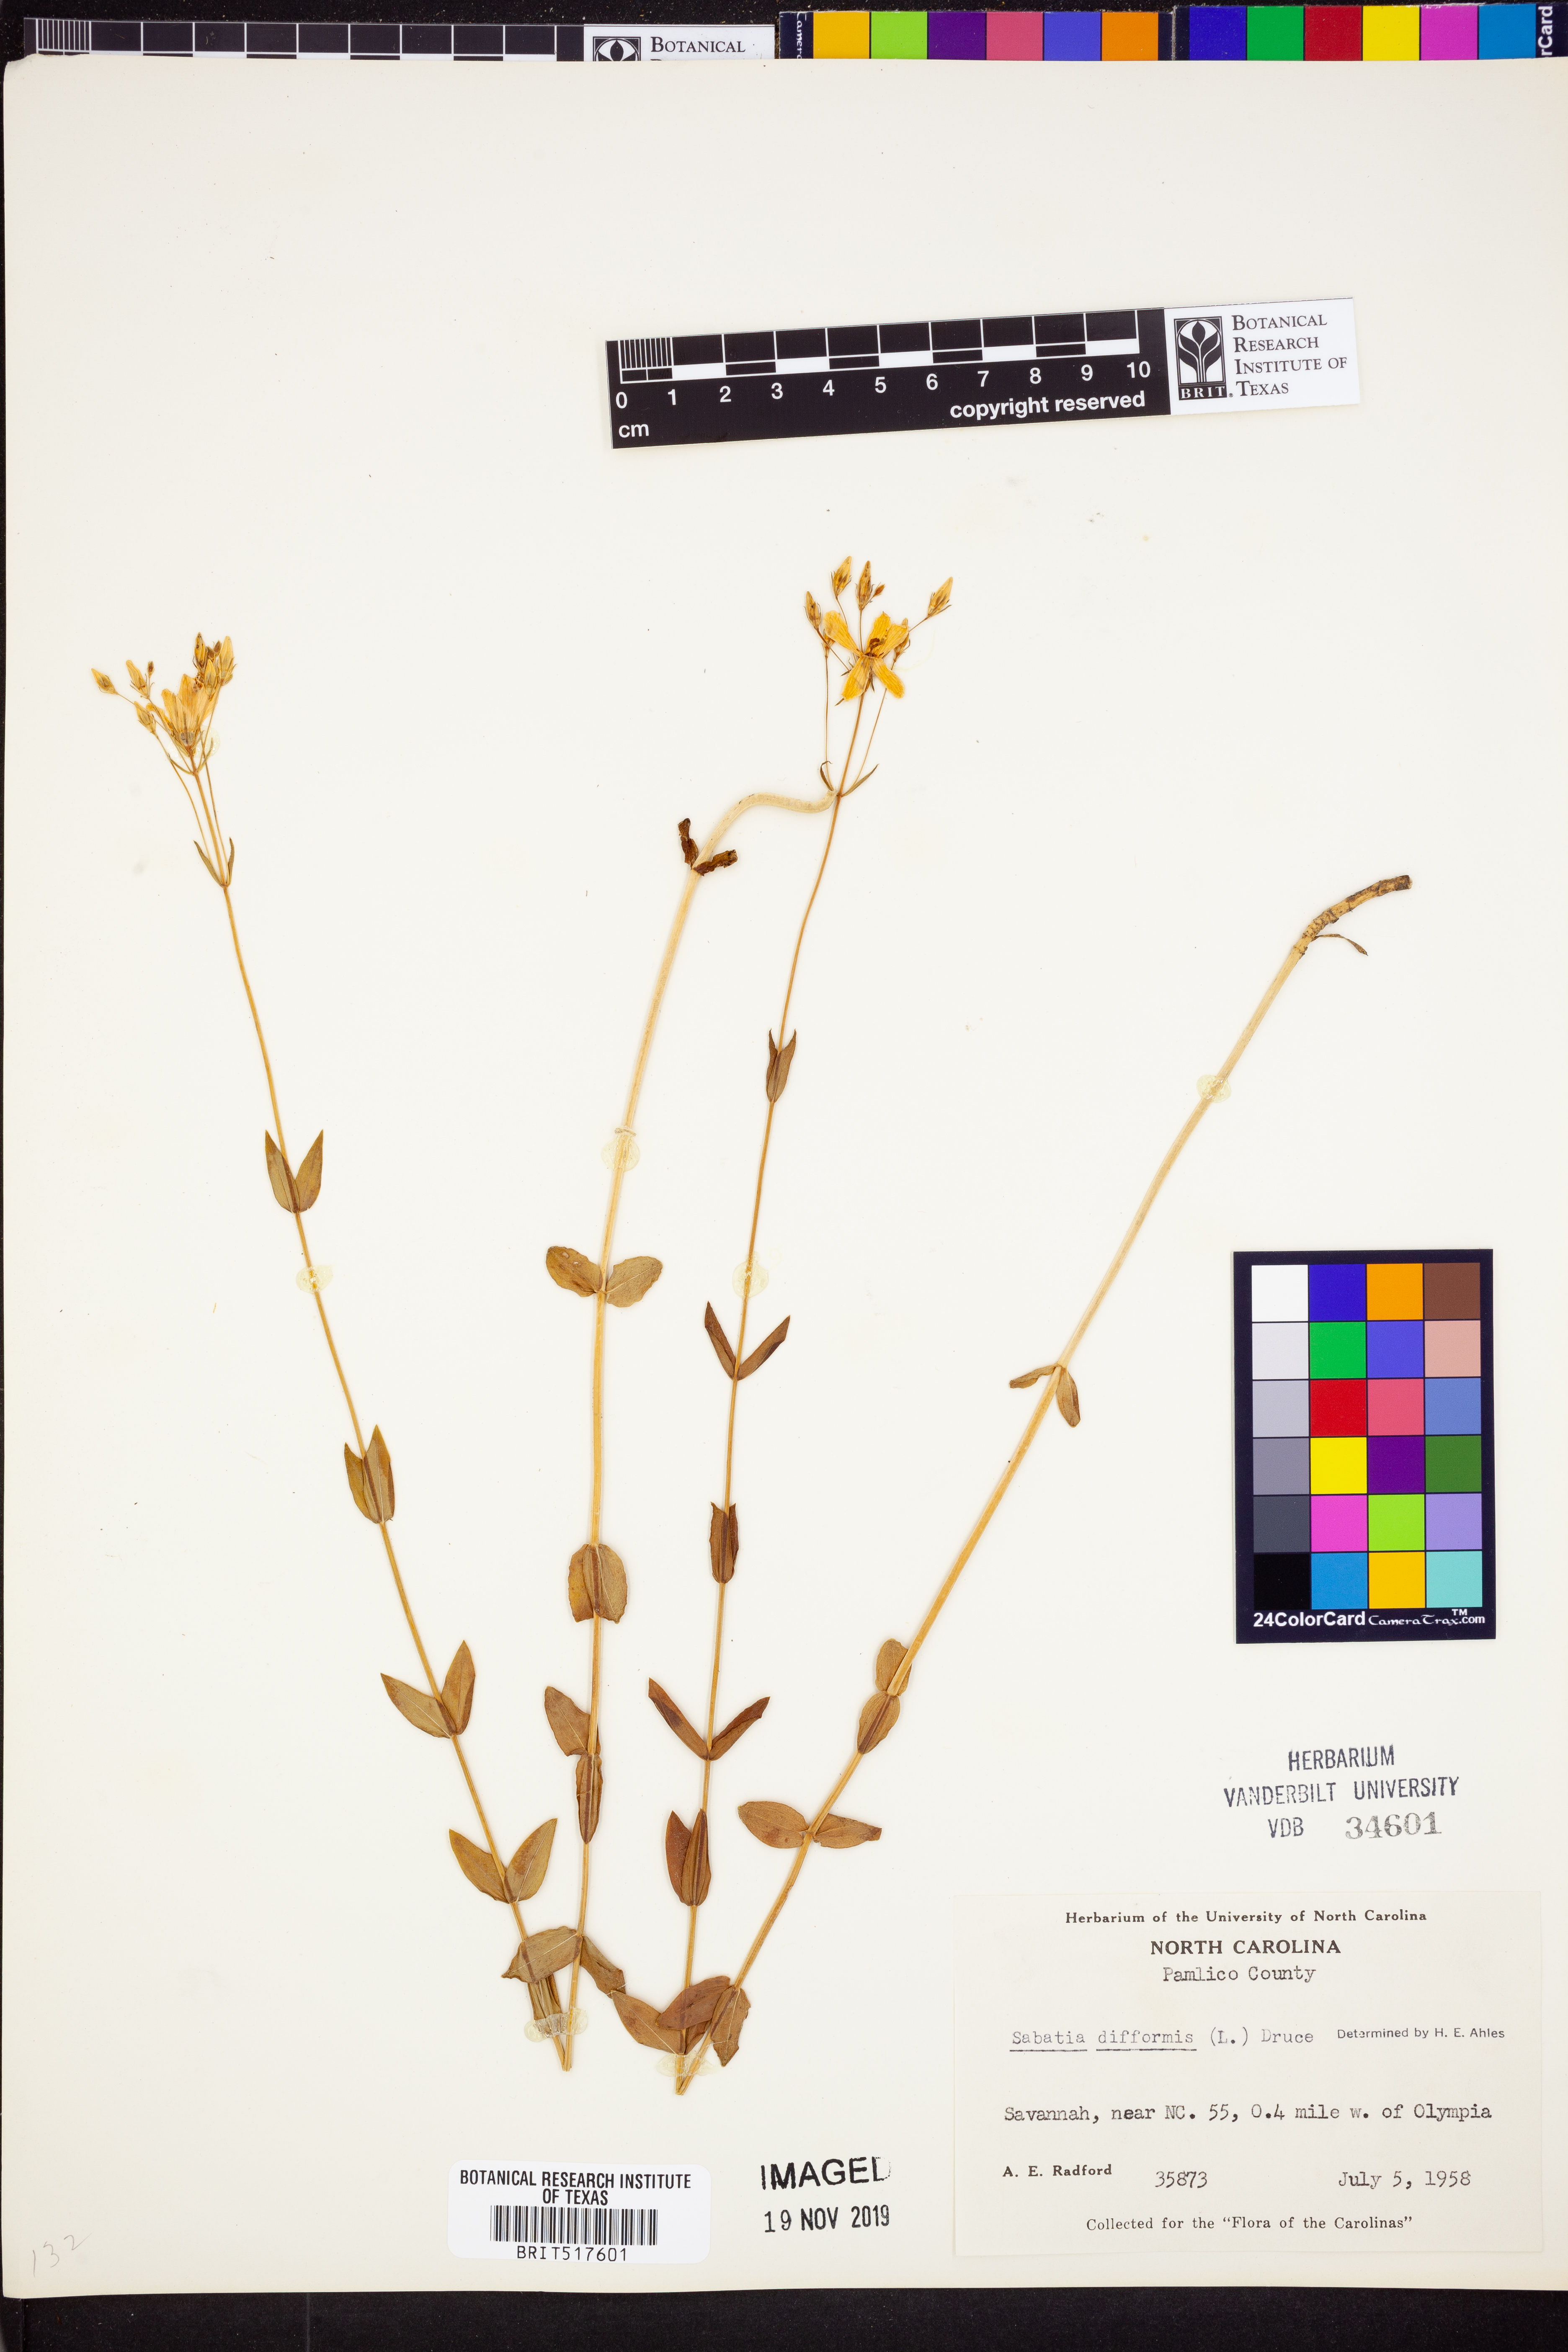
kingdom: Plantae
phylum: Tracheophyta
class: Magnoliopsida
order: Gentianales
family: Gentianaceae
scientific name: Gentianaceae
